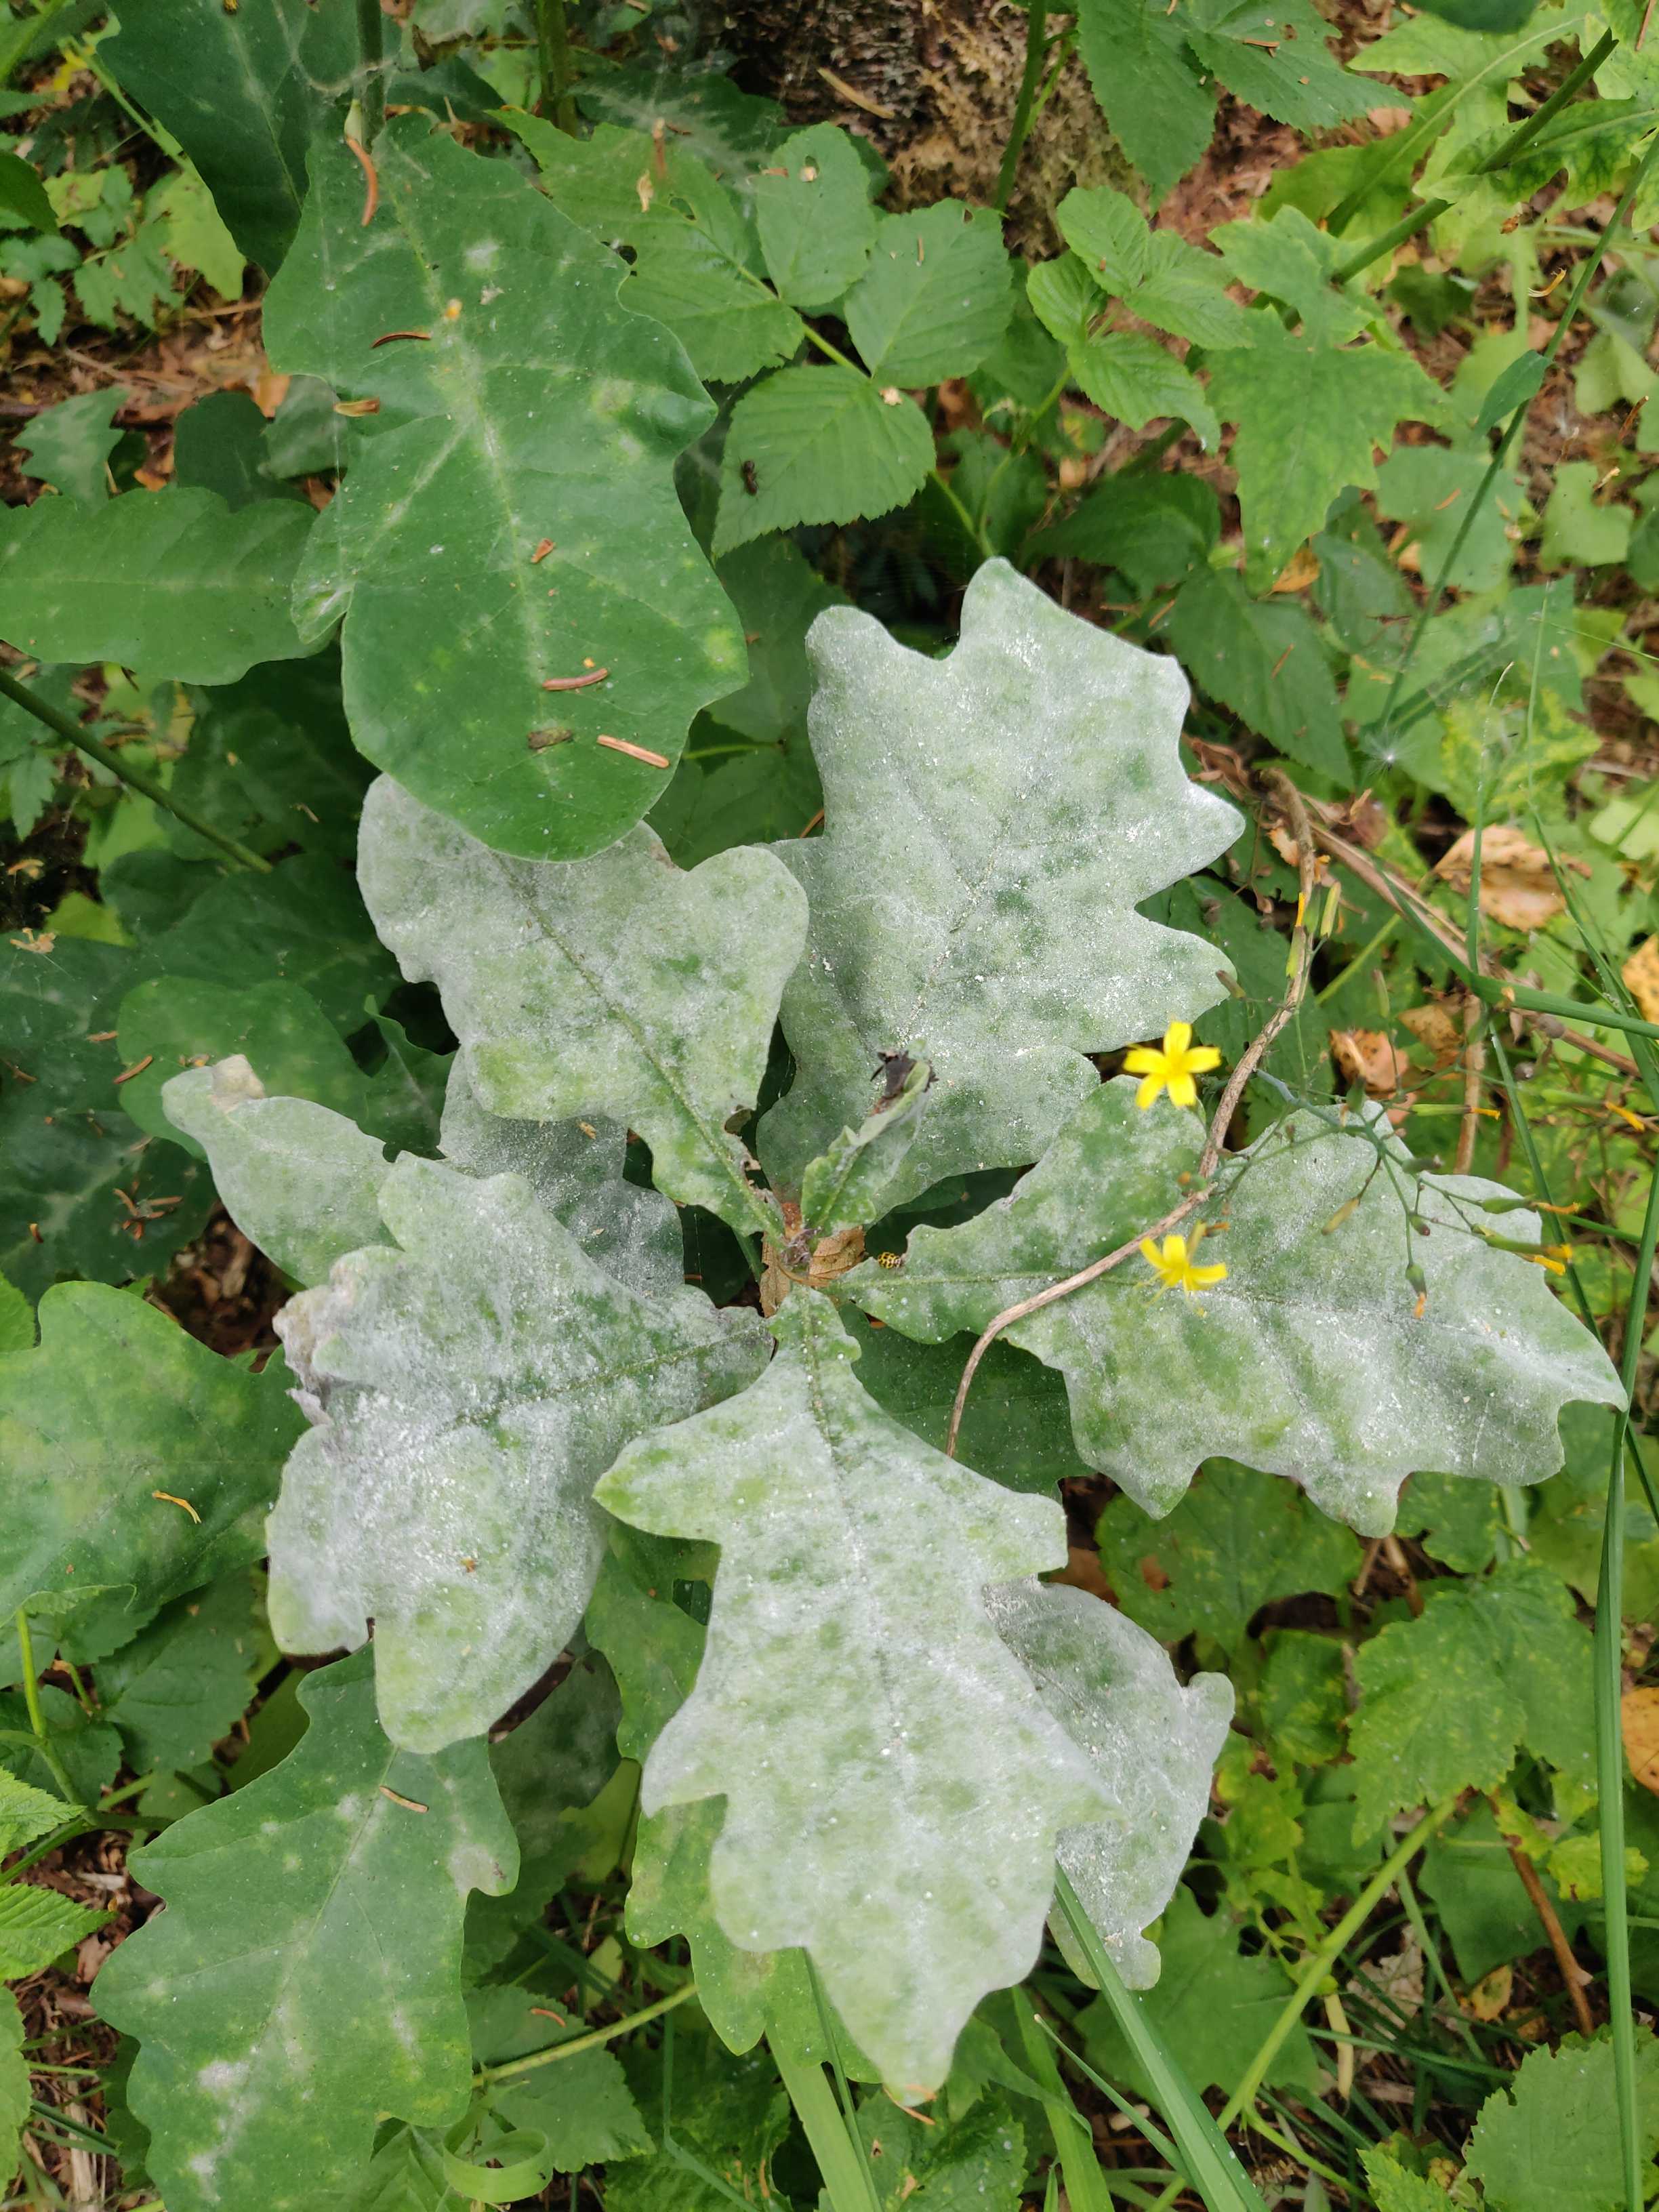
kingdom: Fungi
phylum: Ascomycota
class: Leotiomycetes
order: Helotiales
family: Erysiphaceae
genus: Erysiphe
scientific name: Erysiphe alphitoides
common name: ege-meldug
